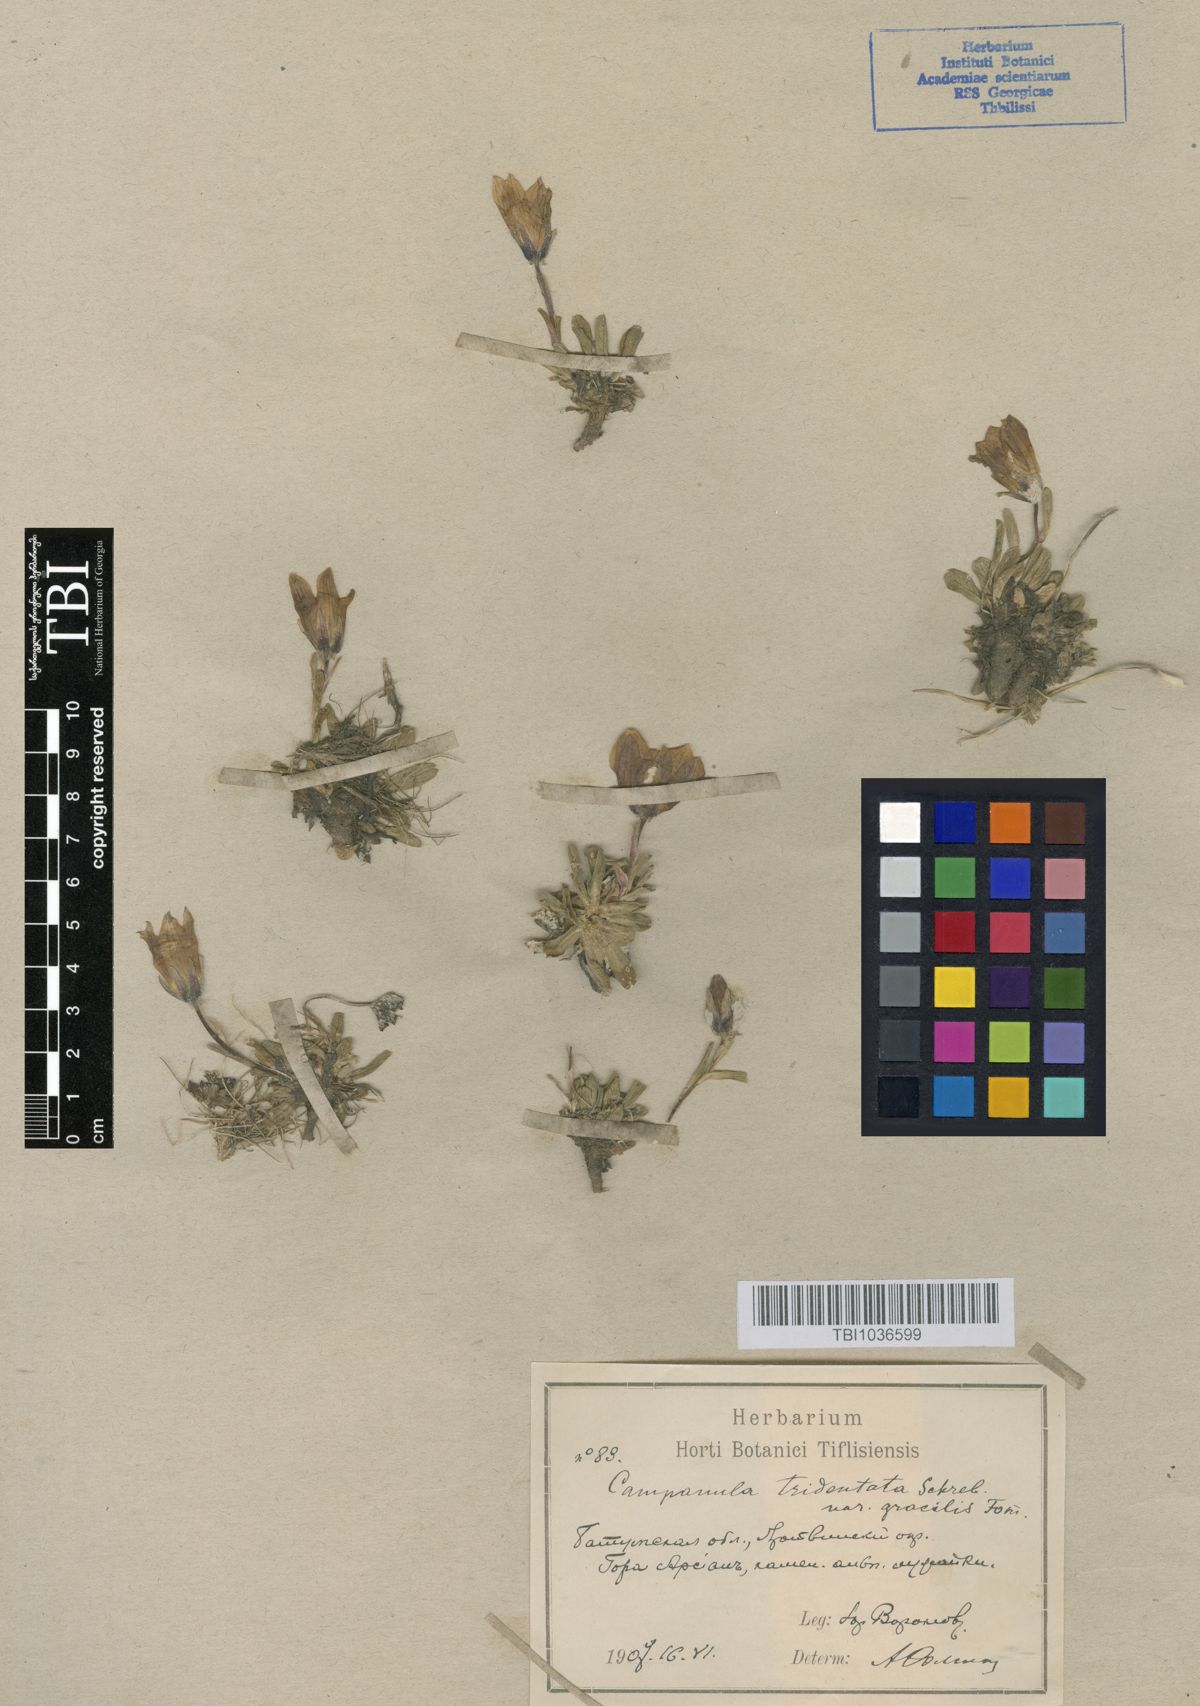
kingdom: Plantae
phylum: Tracheophyta
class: Magnoliopsida
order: Asterales
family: Campanulaceae
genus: Campanula
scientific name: Campanula tridentata
